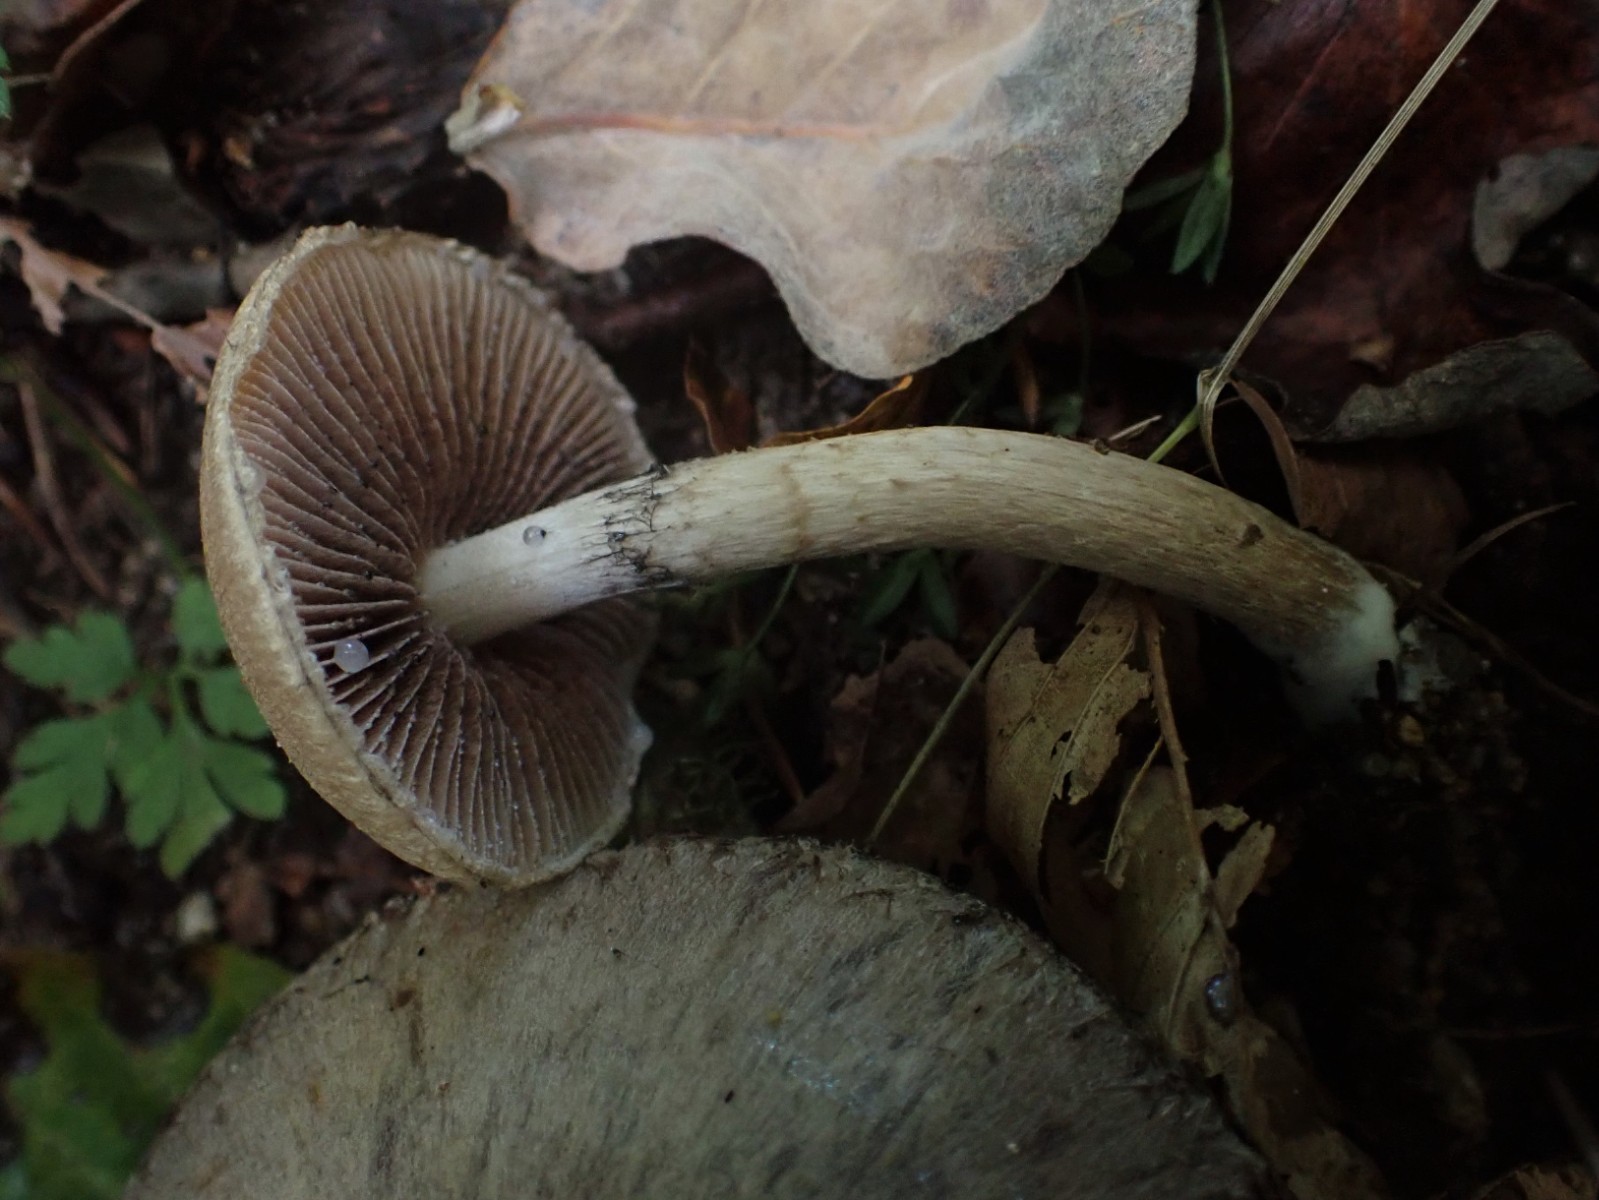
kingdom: Fungi
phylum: Basidiomycota
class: Agaricomycetes
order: Agaricales
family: Psathyrellaceae
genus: Lacrymaria
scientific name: Lacrymaria lacrymabunda
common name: grædende mørkhat
